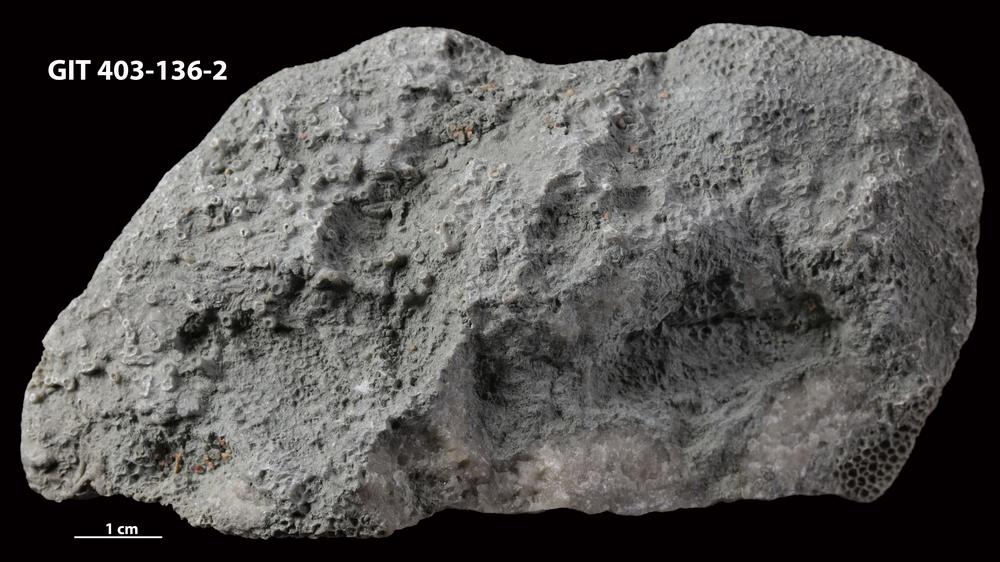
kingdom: Animalia
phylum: Cnidaria
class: Anthozoa
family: Auloporidae
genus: Aulopora
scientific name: Aulopora
